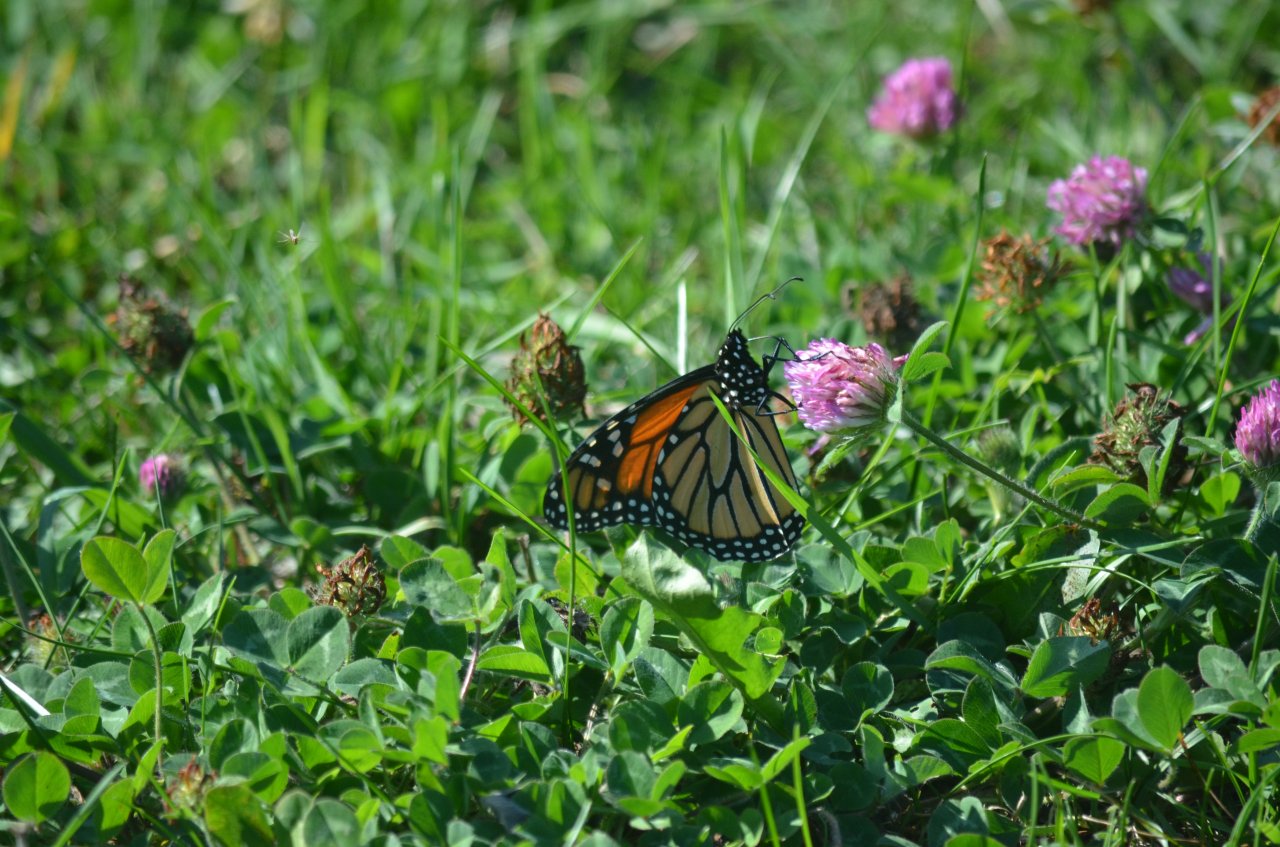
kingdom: Animalia
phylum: Arthropoda
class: Insecta
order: Lepidoptera
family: Nymphalidae
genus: Danaus
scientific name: Danaus plexippus
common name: Monarch
